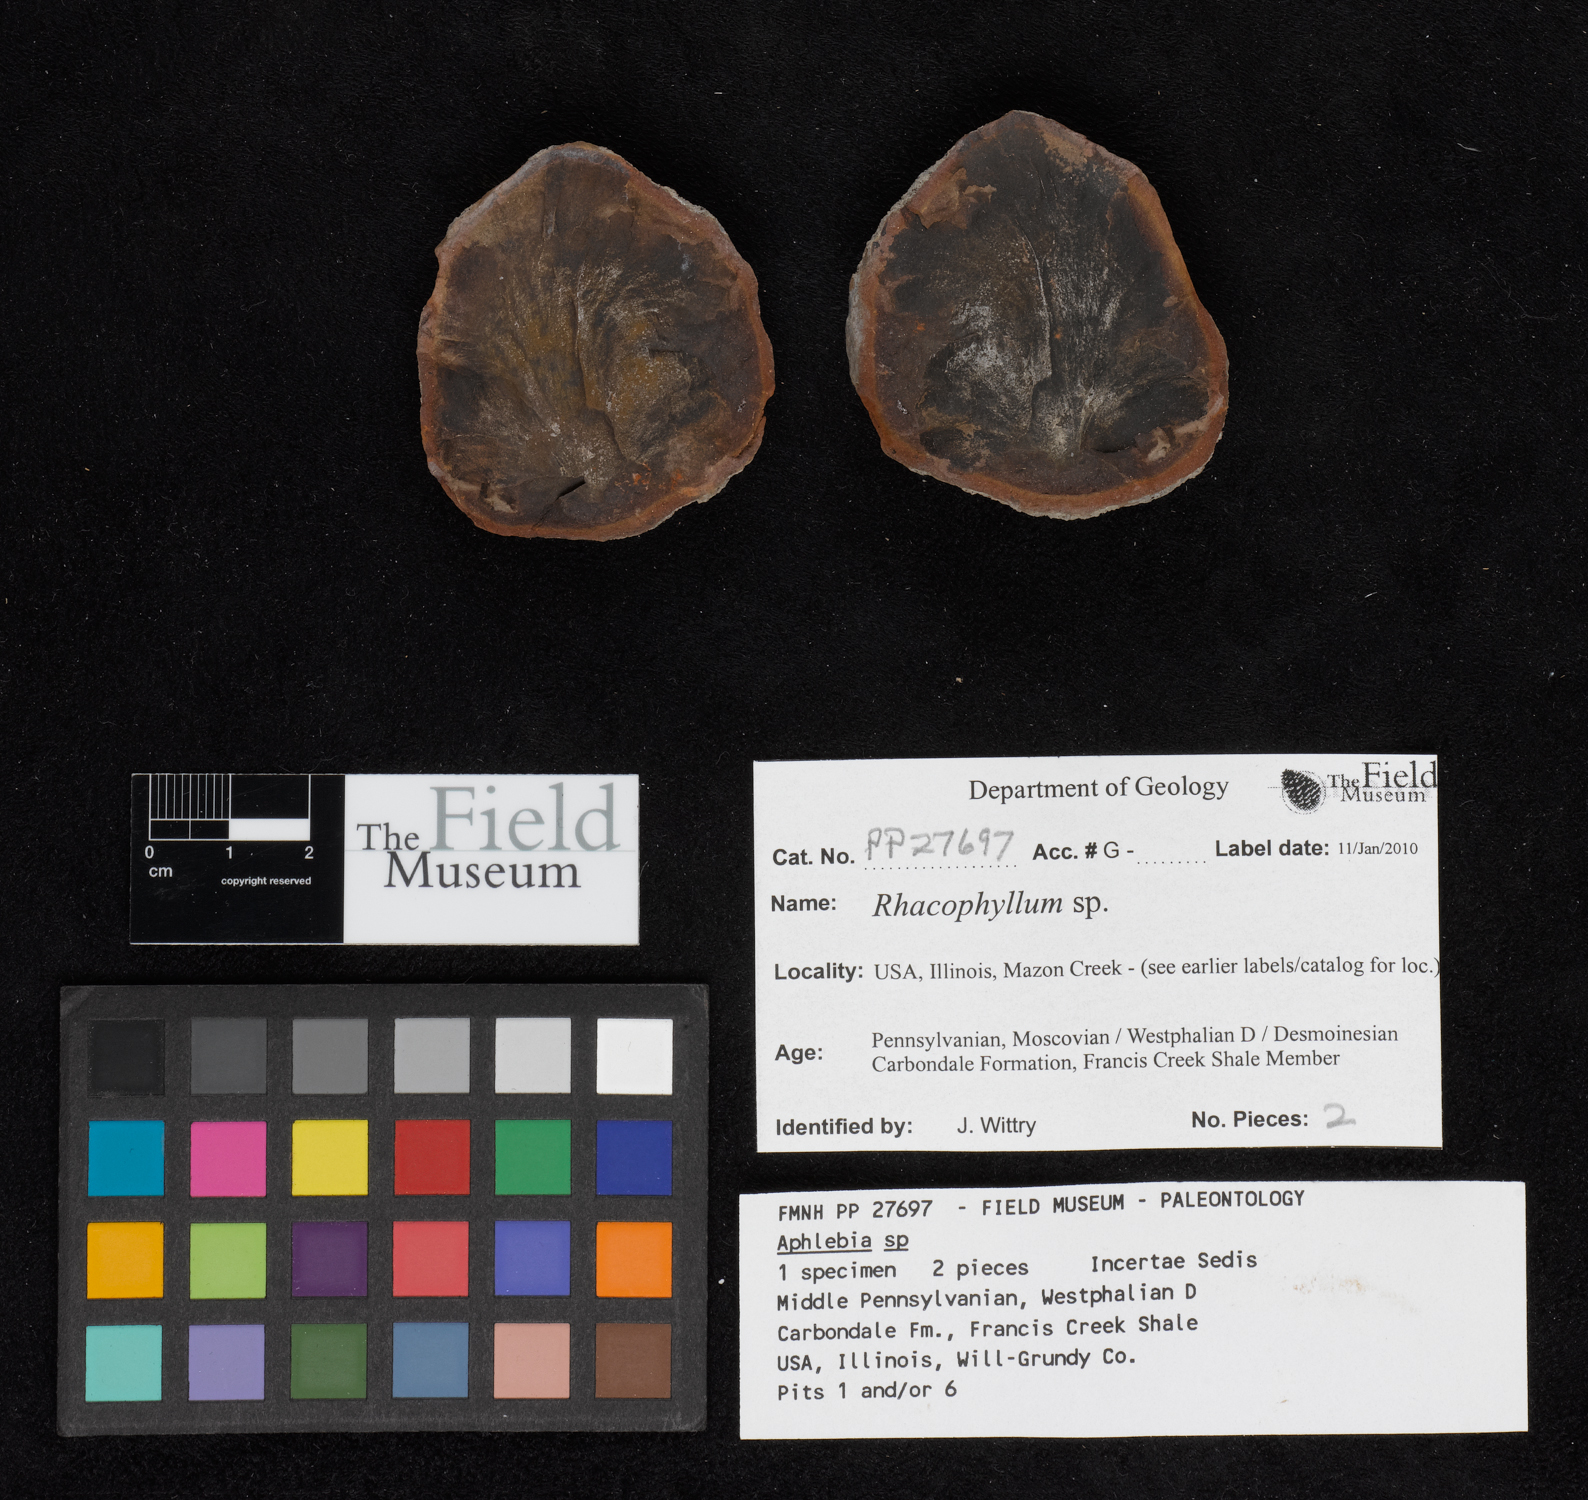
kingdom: Plantae
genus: Rhacophyllum
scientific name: Rhacophyllum
